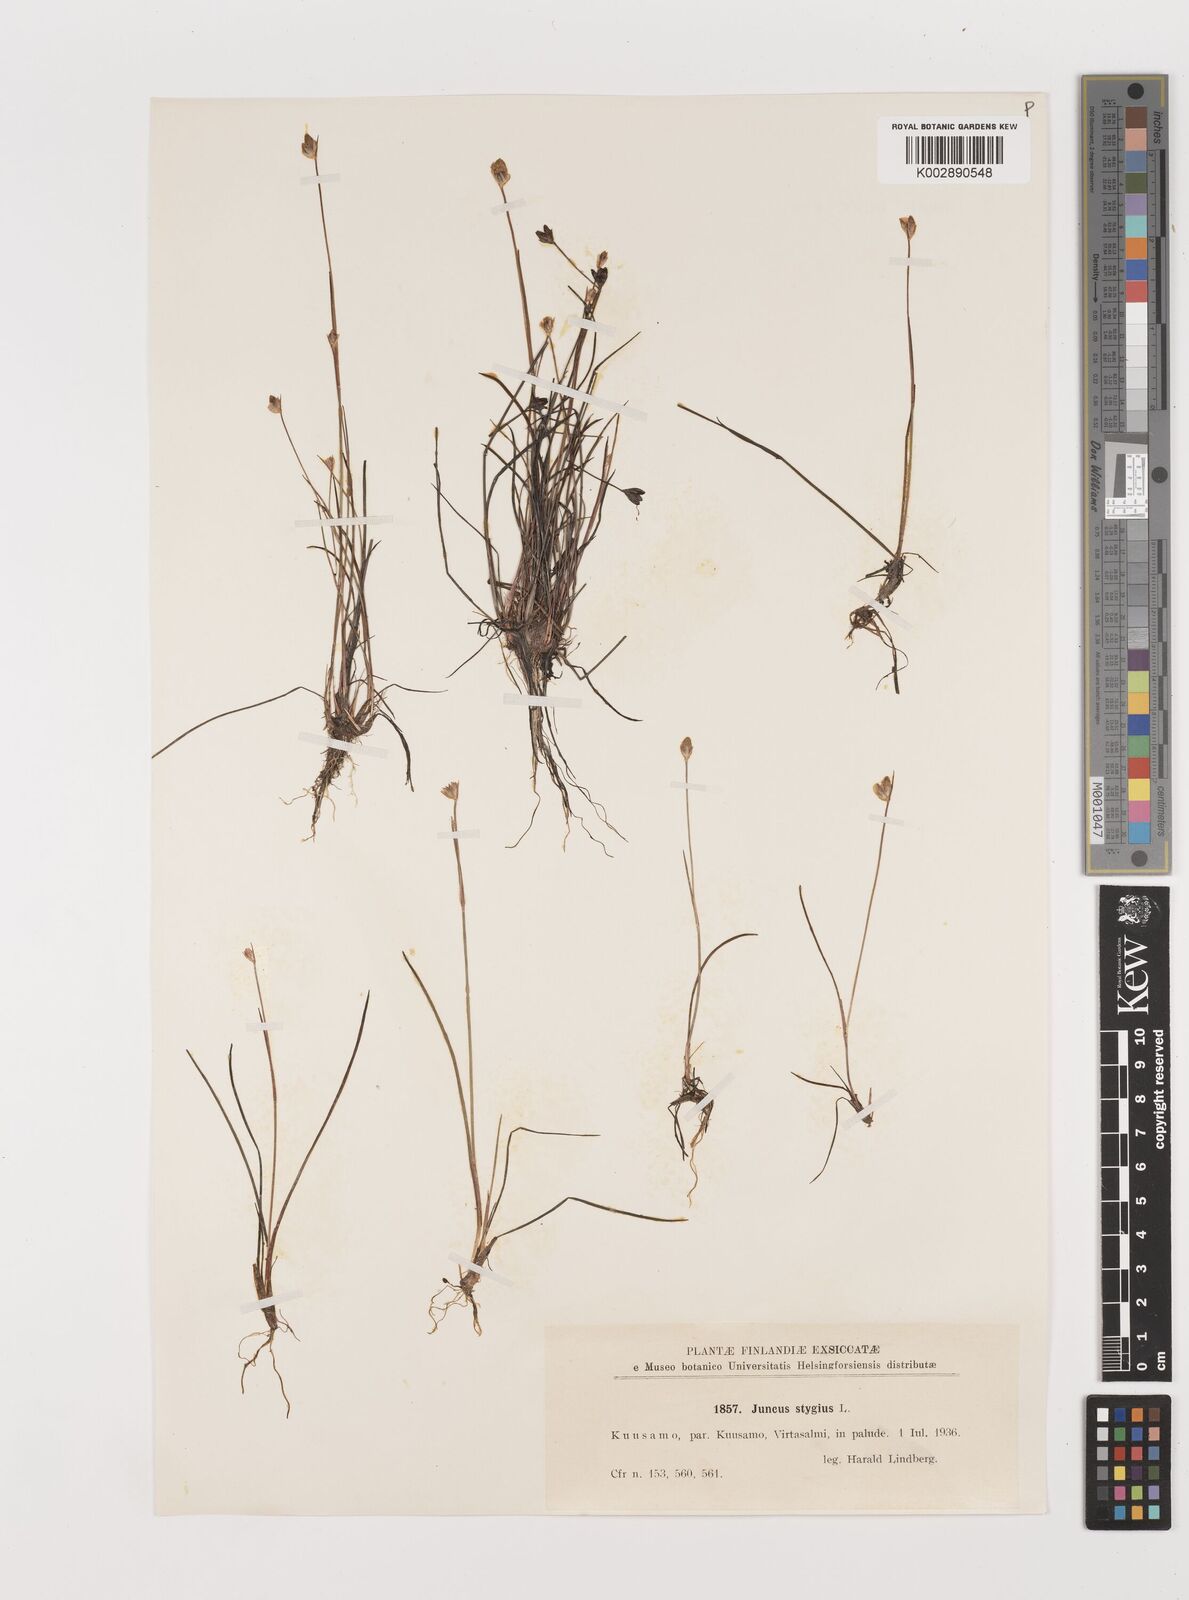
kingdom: Plantae
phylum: Tracheophyta
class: Liliopsida
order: Poales
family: Juncaceae
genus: Juncus
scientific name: Juncus stygius
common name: Bog rush
